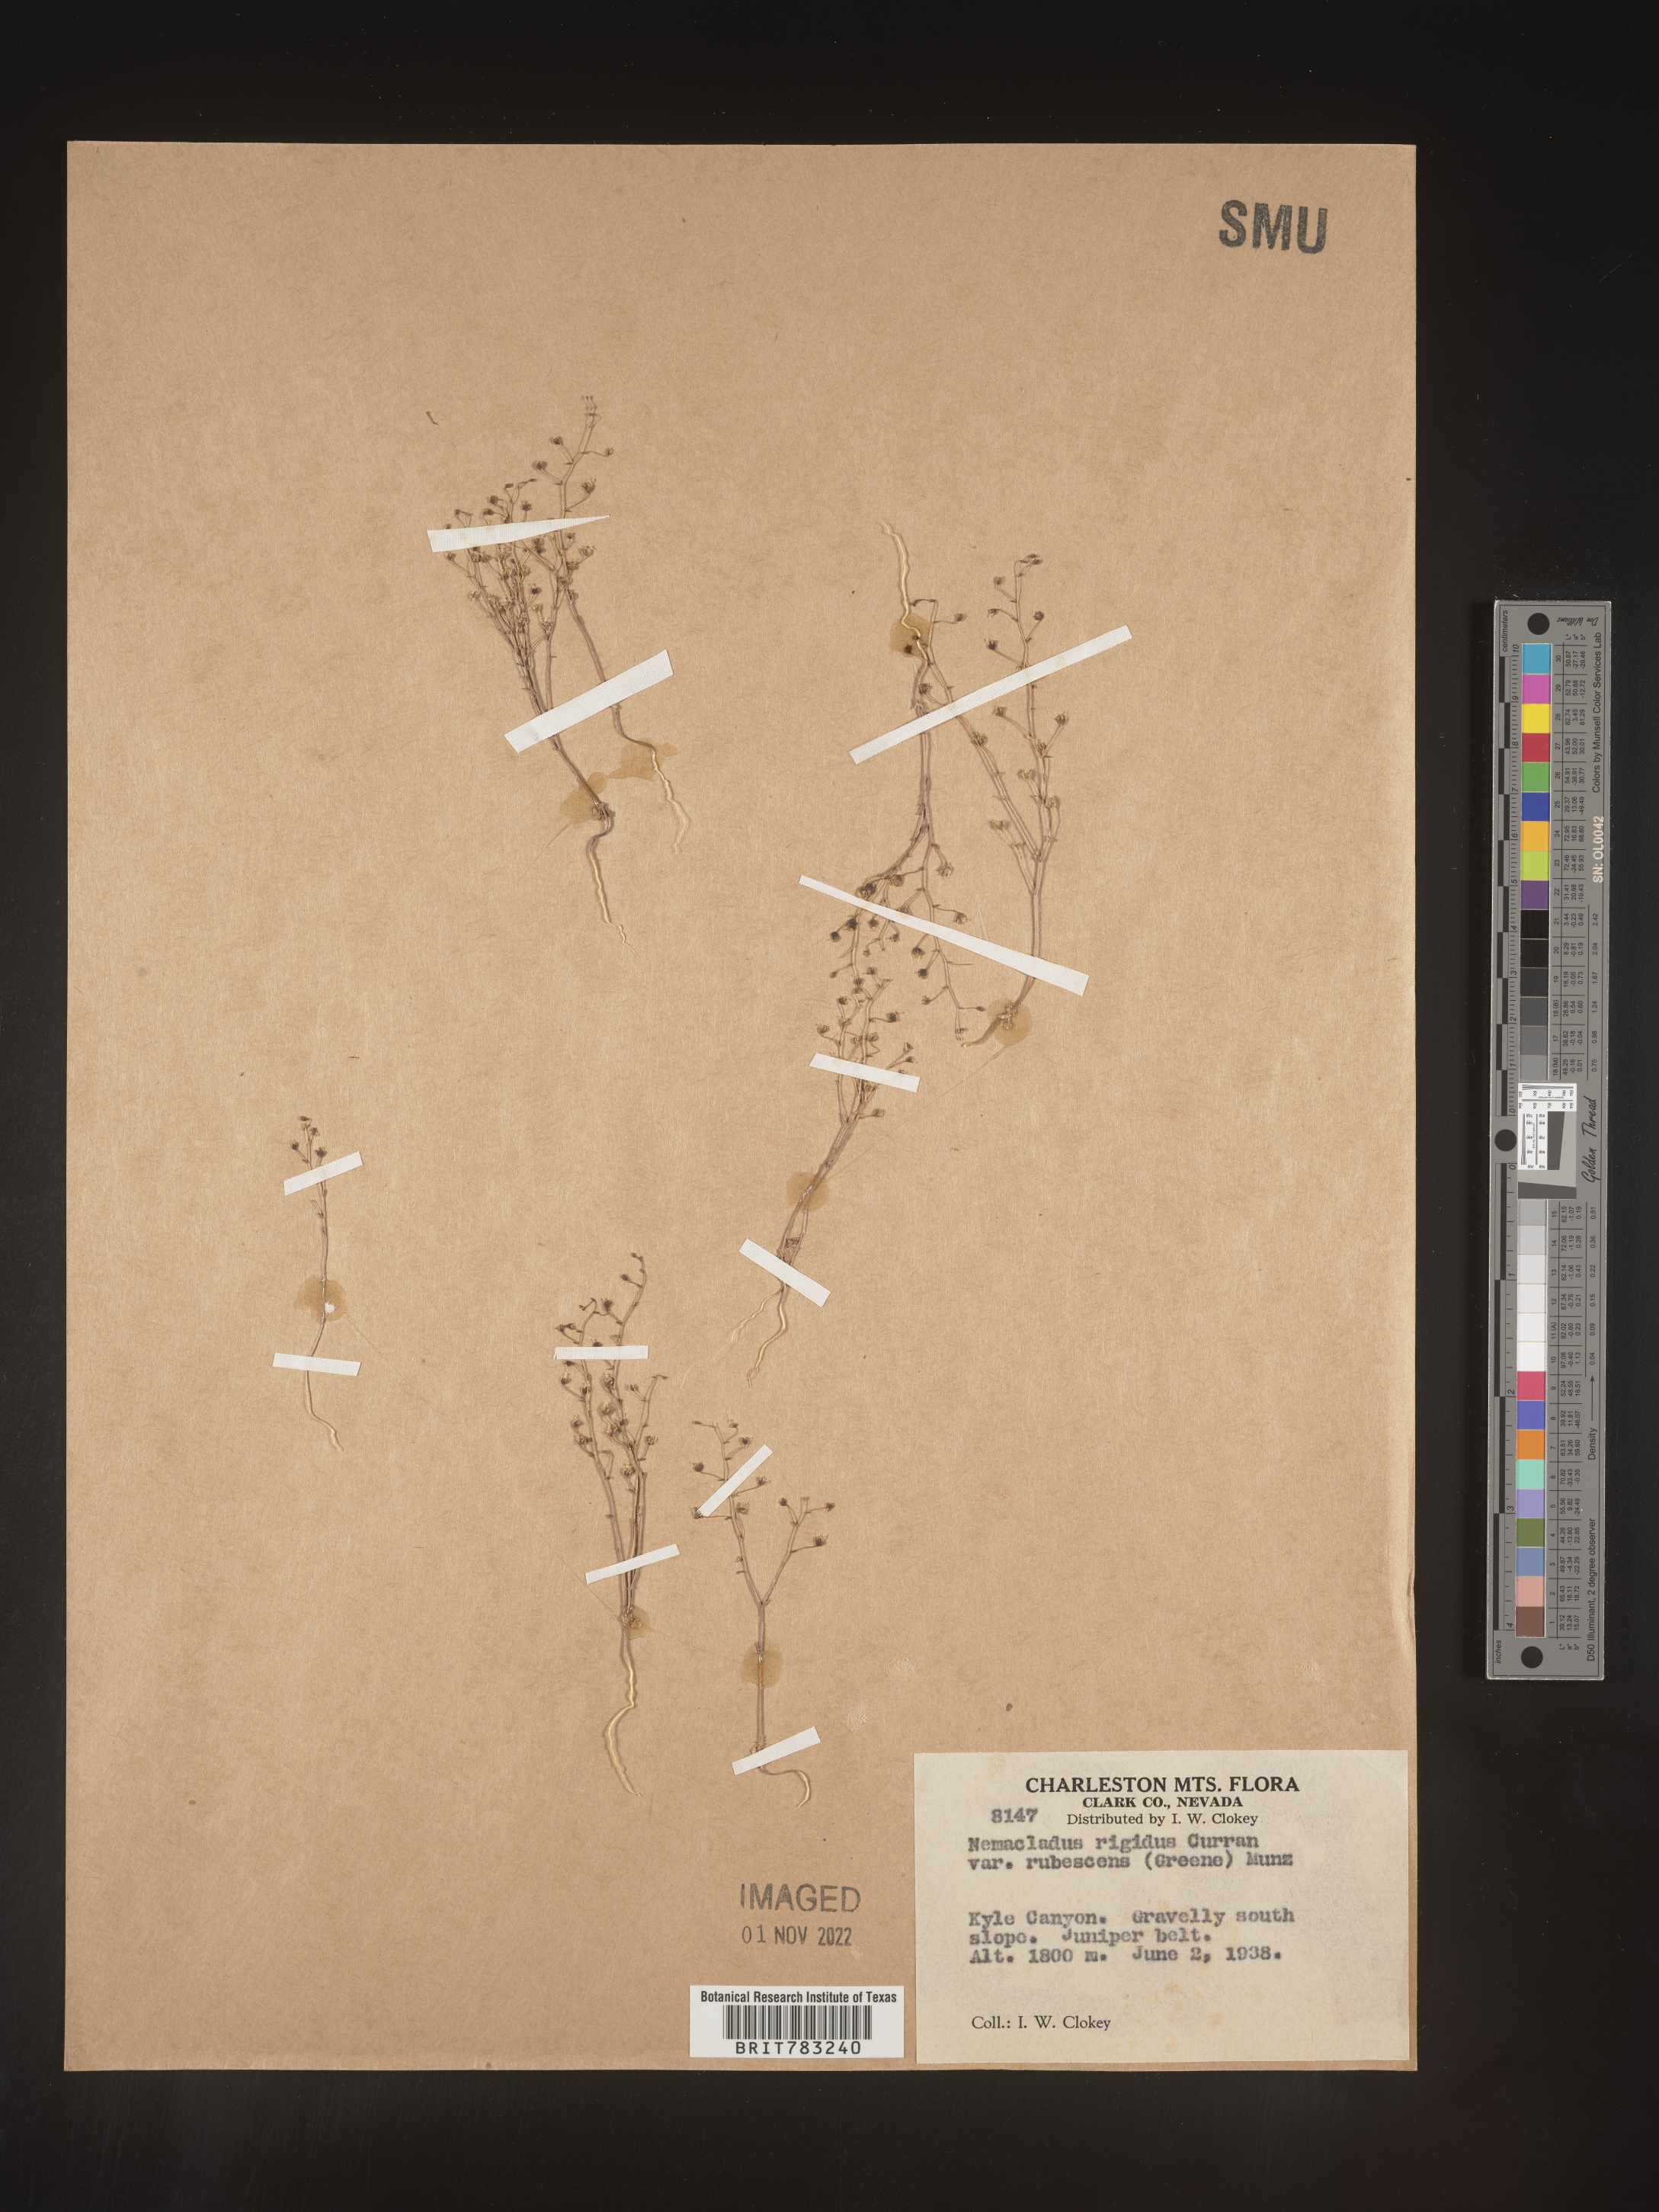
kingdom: Plantae
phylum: Tracheophyta
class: Magnoliopsida
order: Asterales
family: Campanulaceae
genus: Nemacladus
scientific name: Nemacladus
